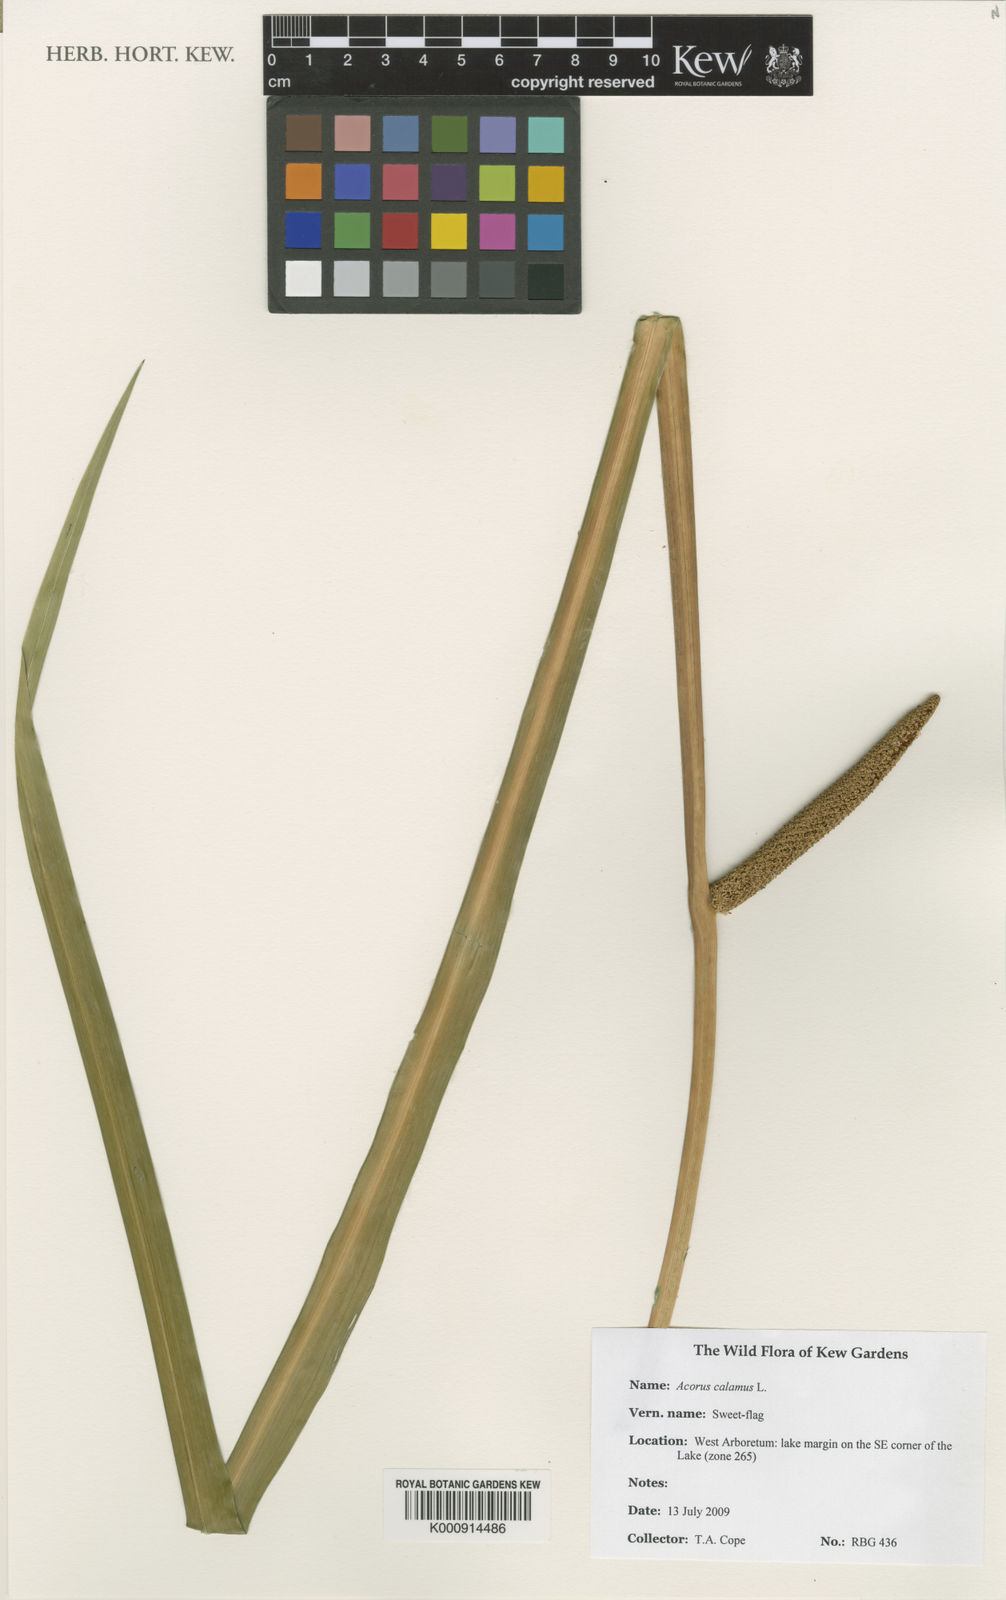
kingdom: Plantae
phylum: Tracheophyta
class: Liliopsida
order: Acorales
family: Acoraceae
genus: Acorus
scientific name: Acorus calamus
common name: Sweet-flag
